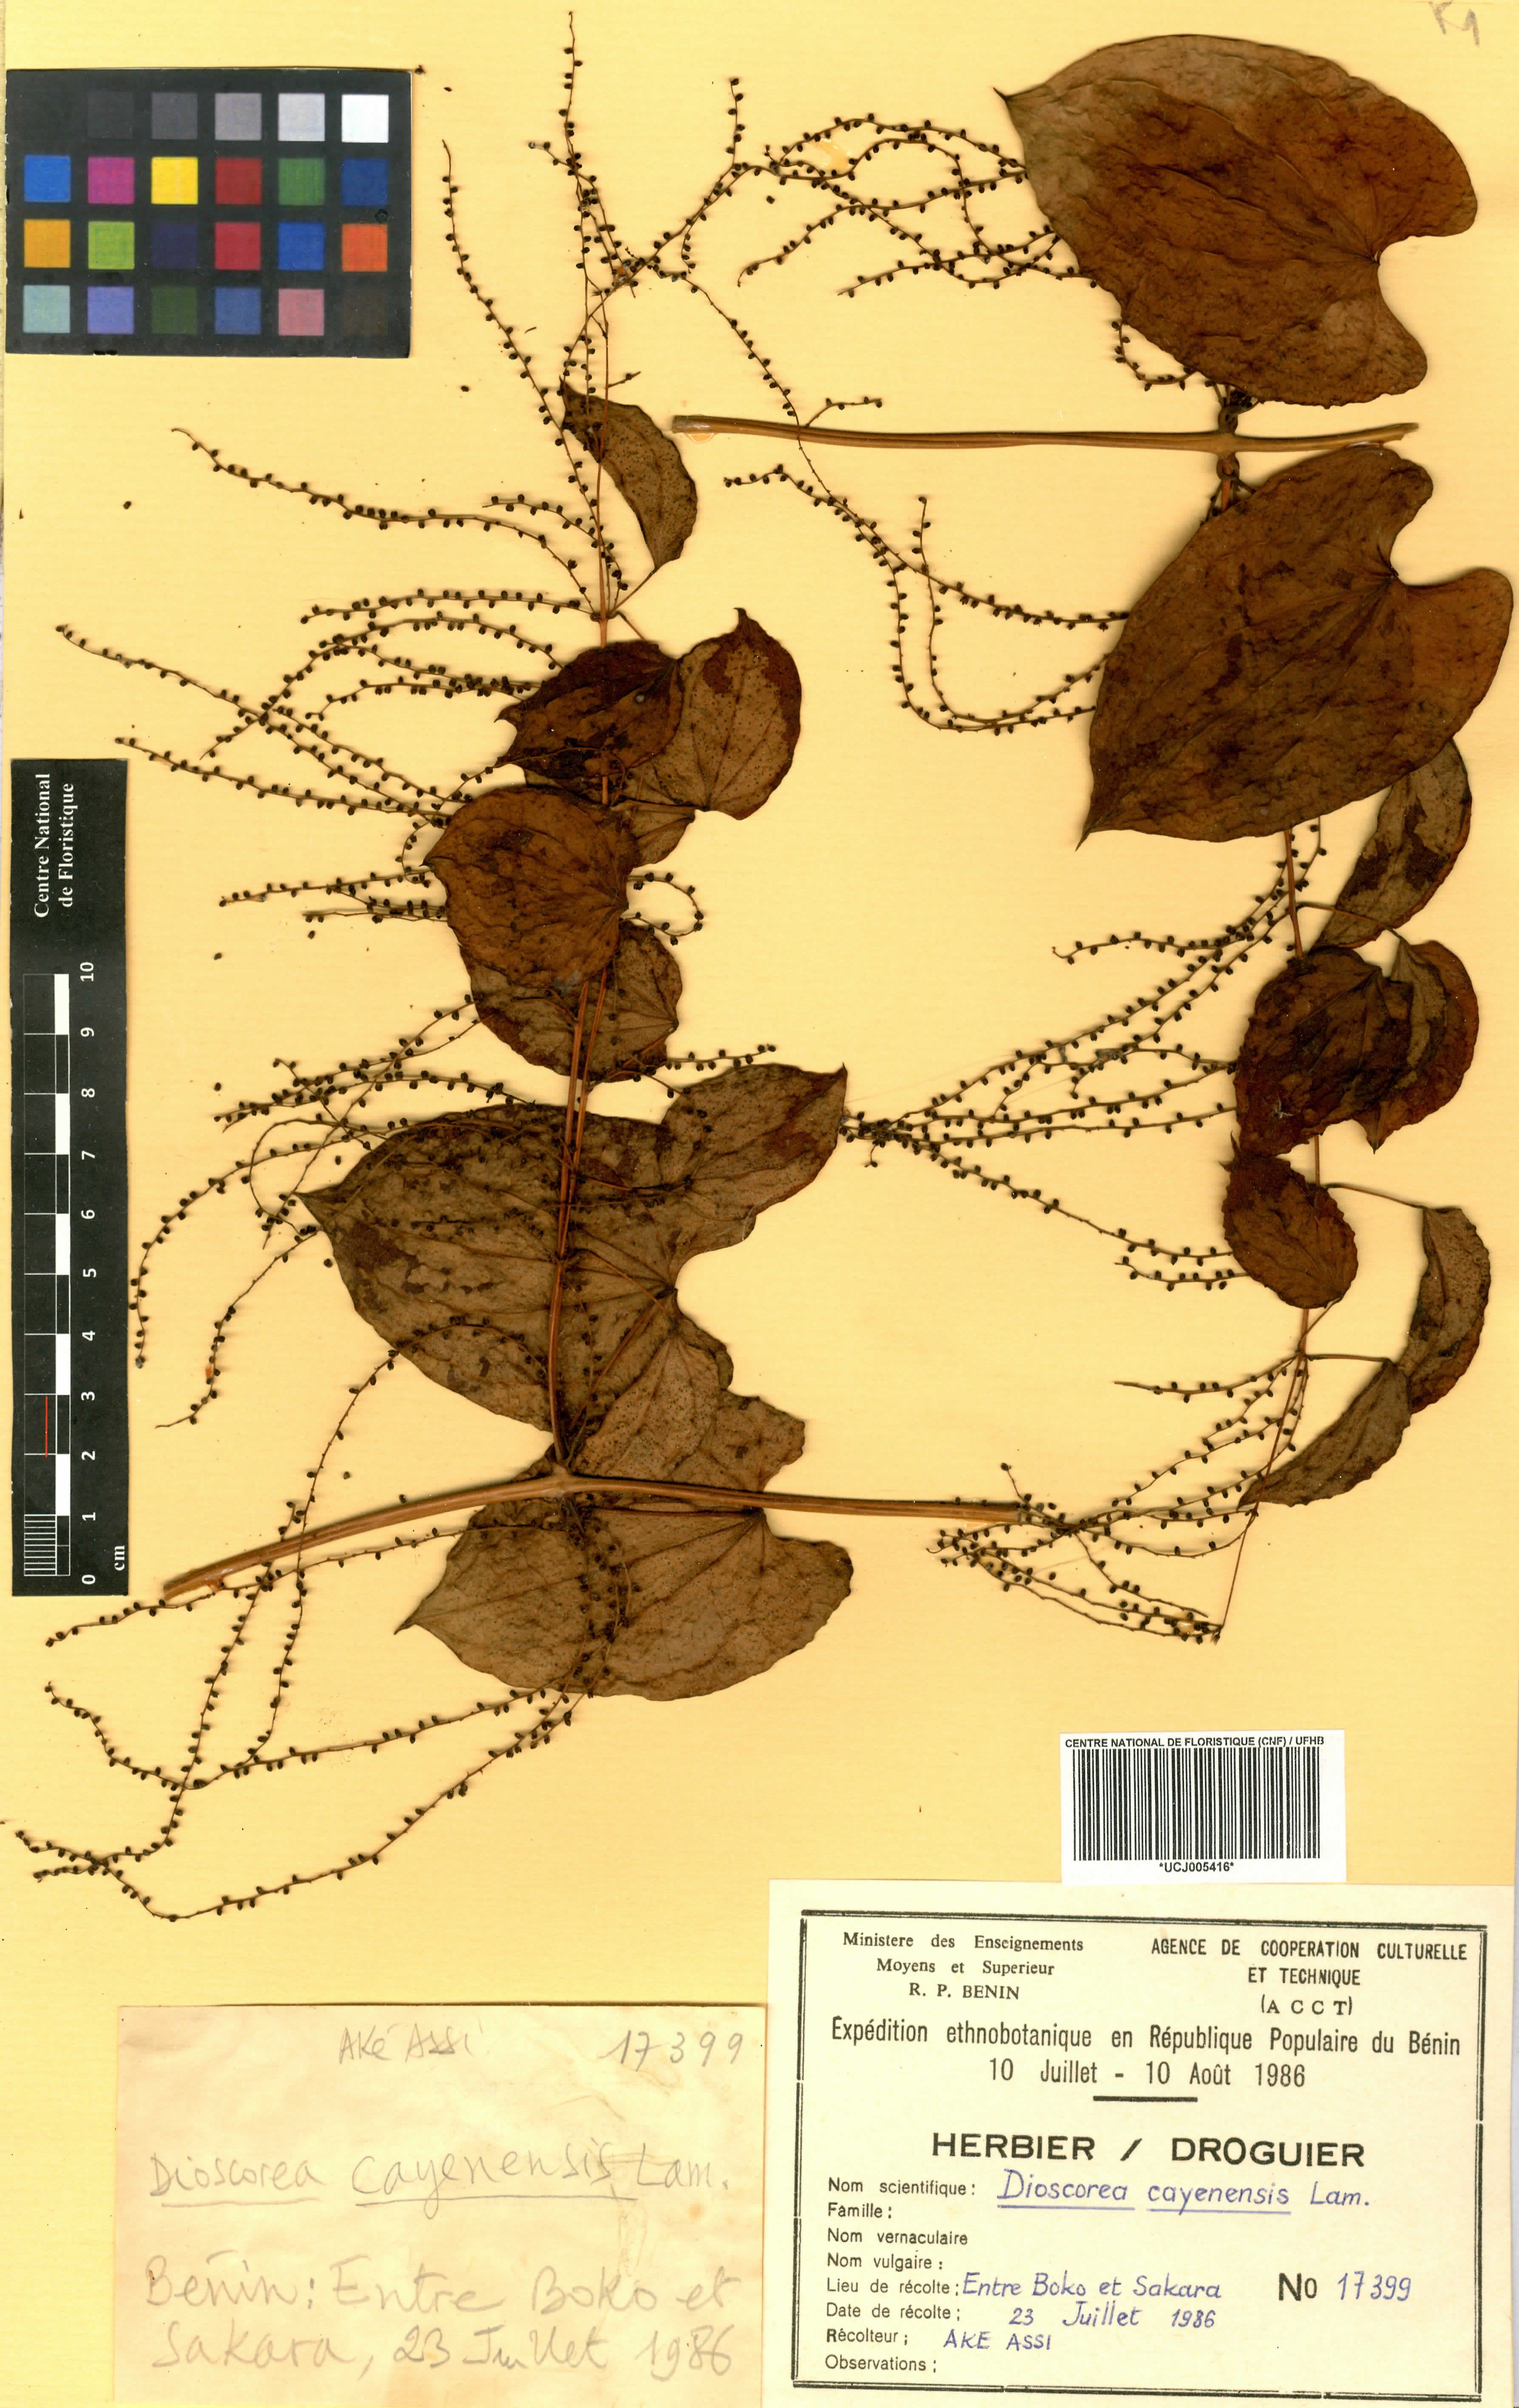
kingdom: Plantae
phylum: Tracheophyta
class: Liliopsida
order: Dioscoreales
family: Dioscoreaceae
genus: Dioscorea
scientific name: Dioscorea cayenensis
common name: Attoto yam
